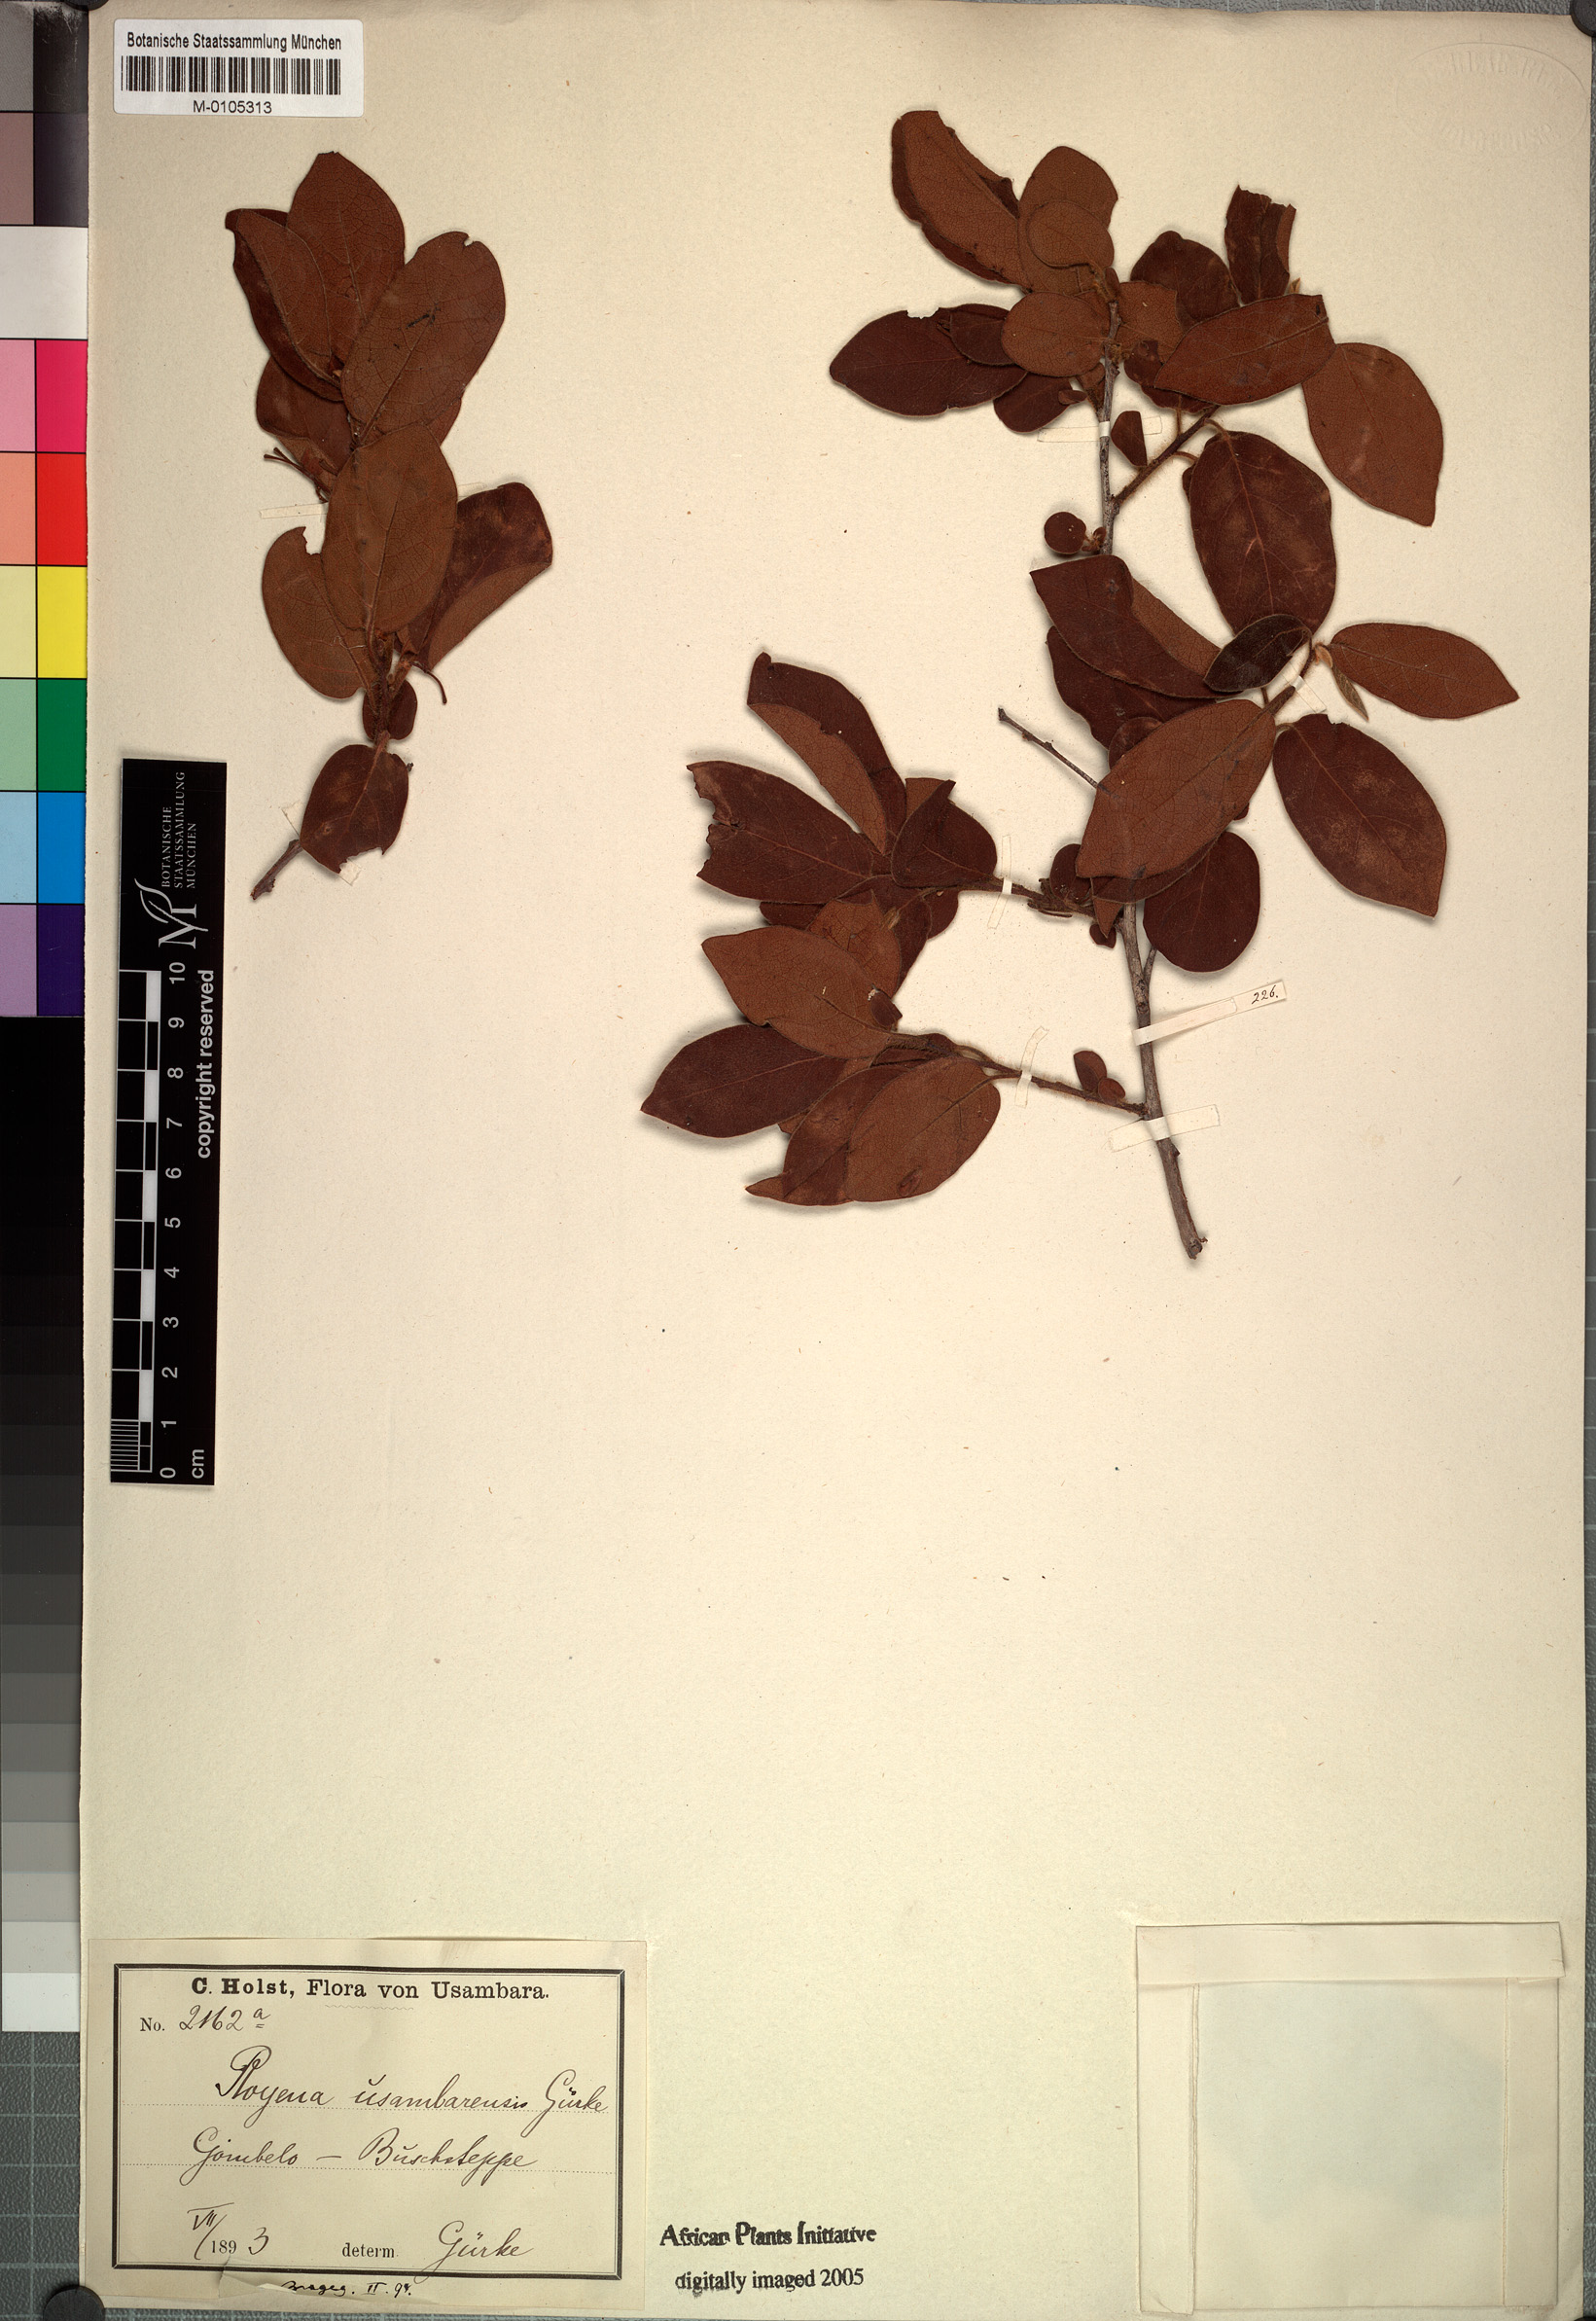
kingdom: Plantae
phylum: Tracheophyta
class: Magnoliopsida
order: Ericales
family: Ebenaceae
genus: Diospyros
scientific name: Diospyros loureiroana
